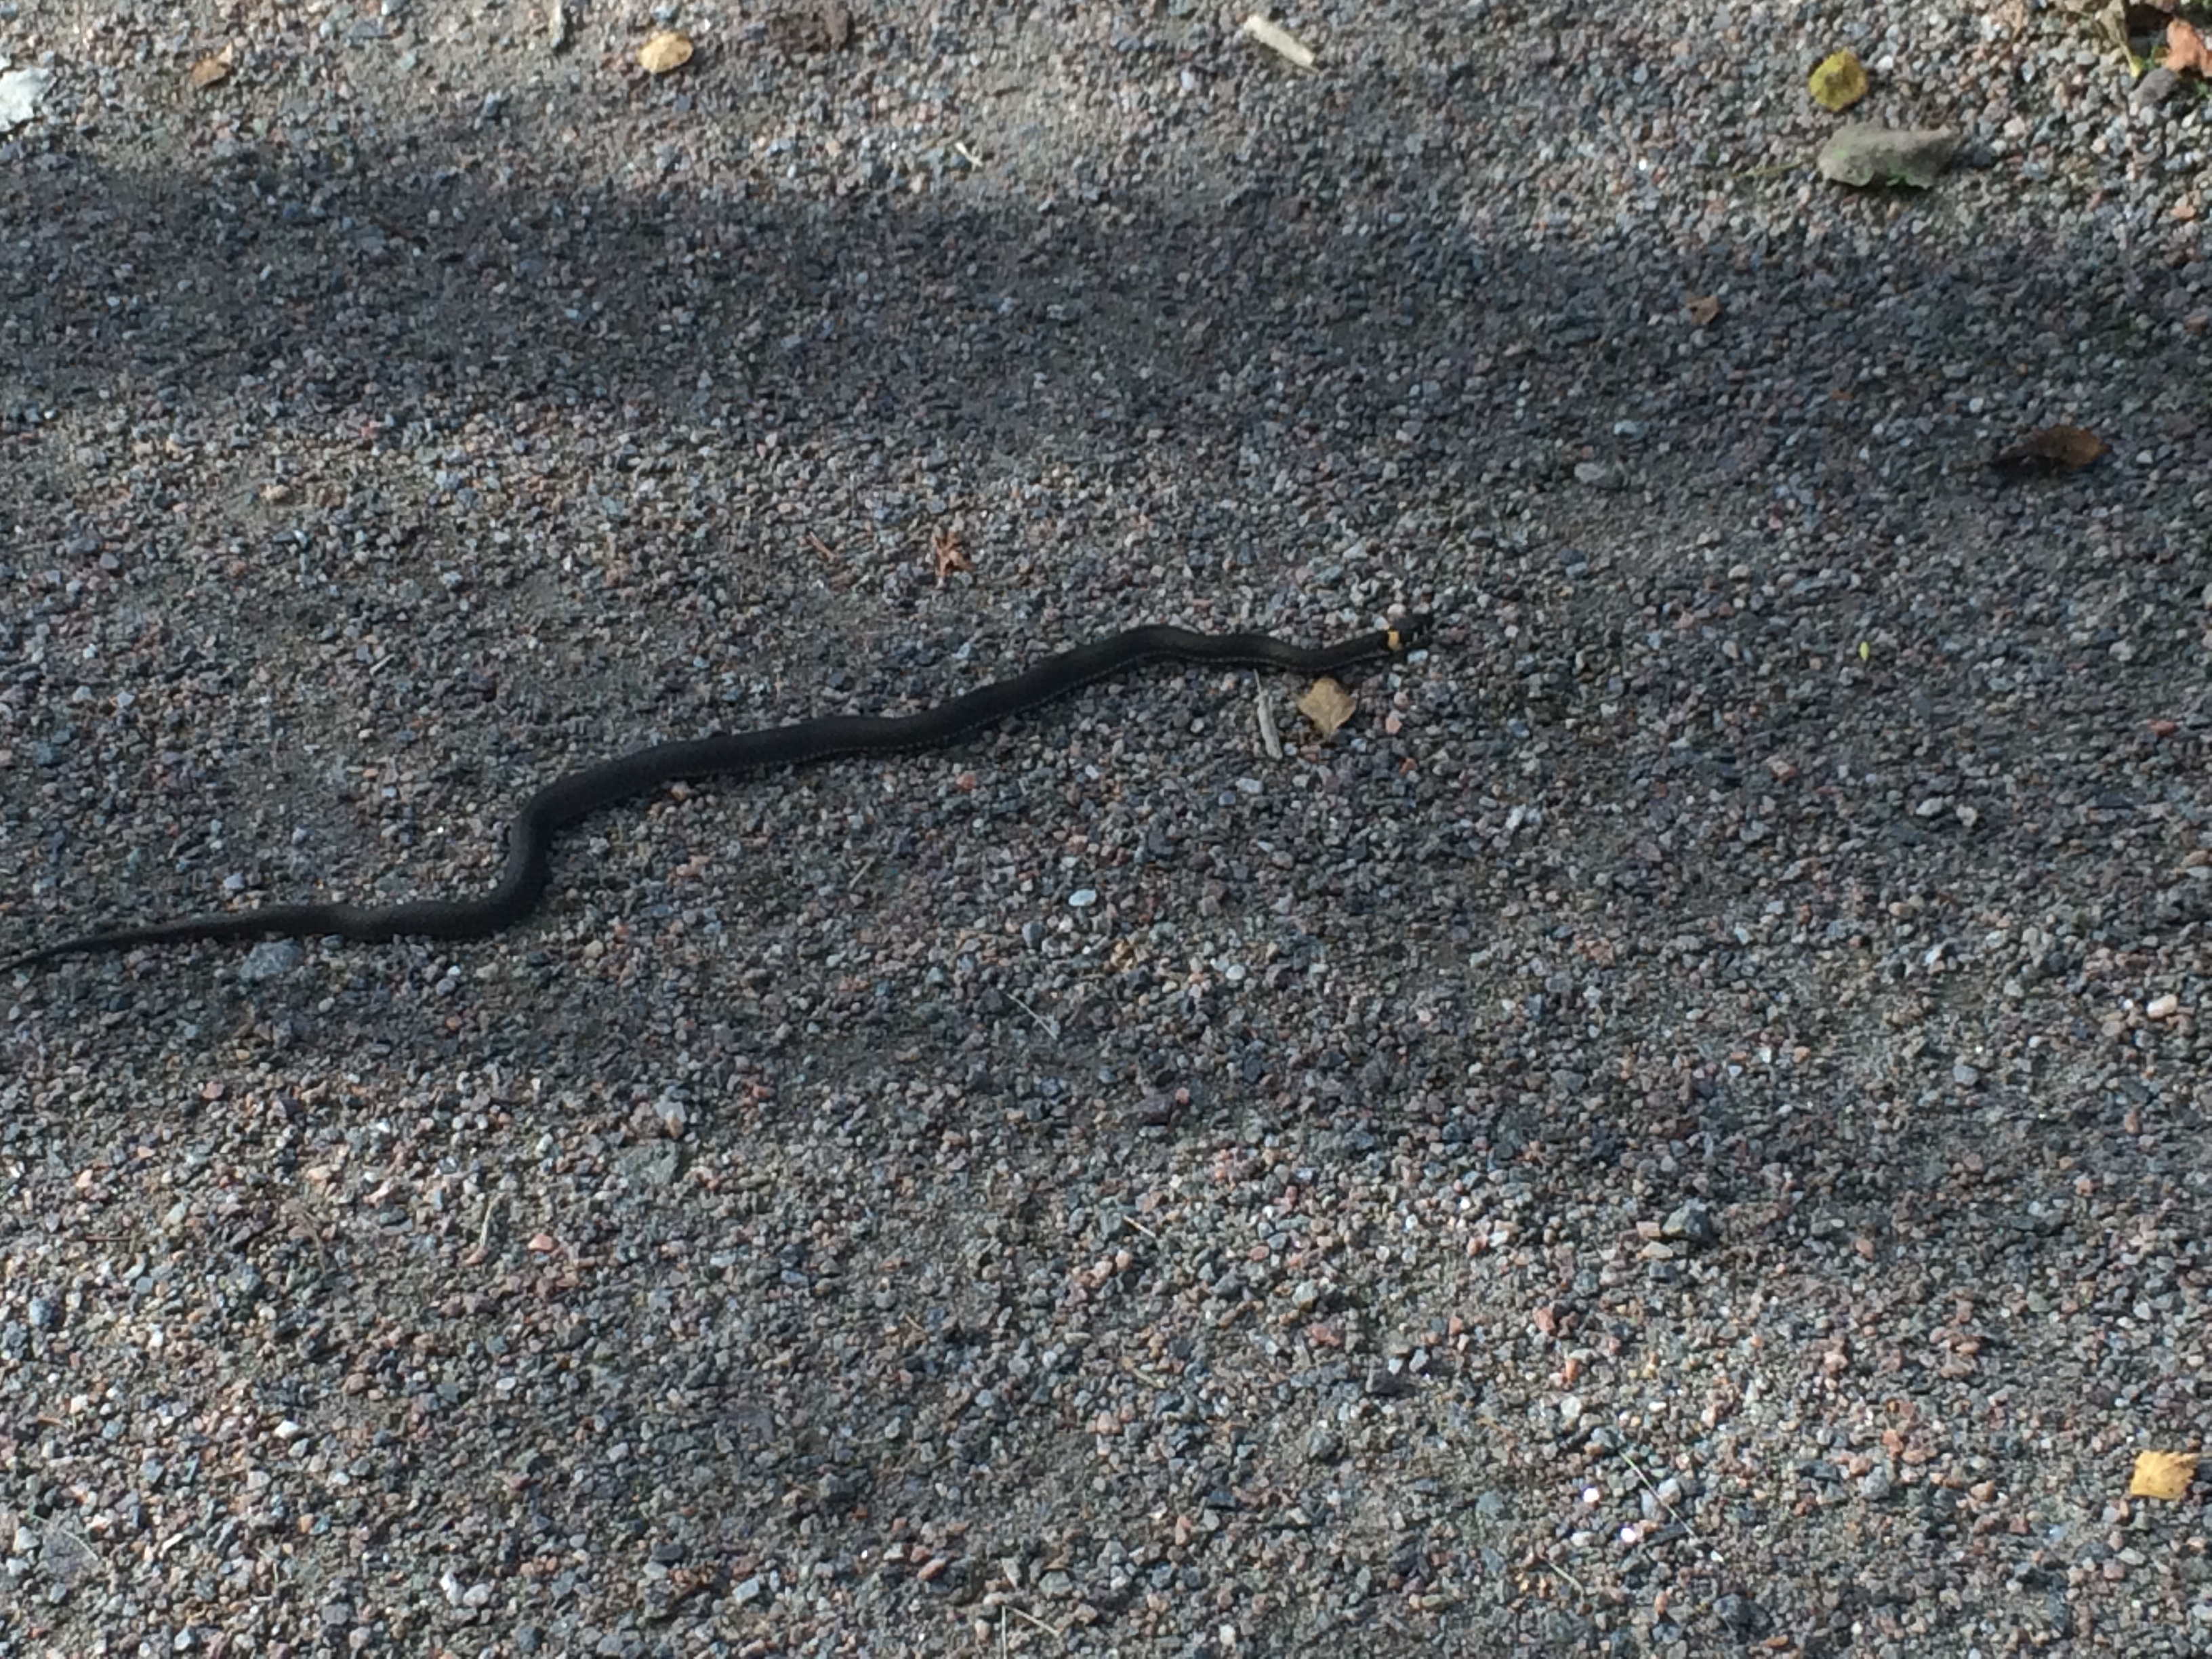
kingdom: Animalia
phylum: Chordata
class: Squamata
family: Colubridae
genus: Natrix
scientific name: Natrix natrix
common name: Grass snake
